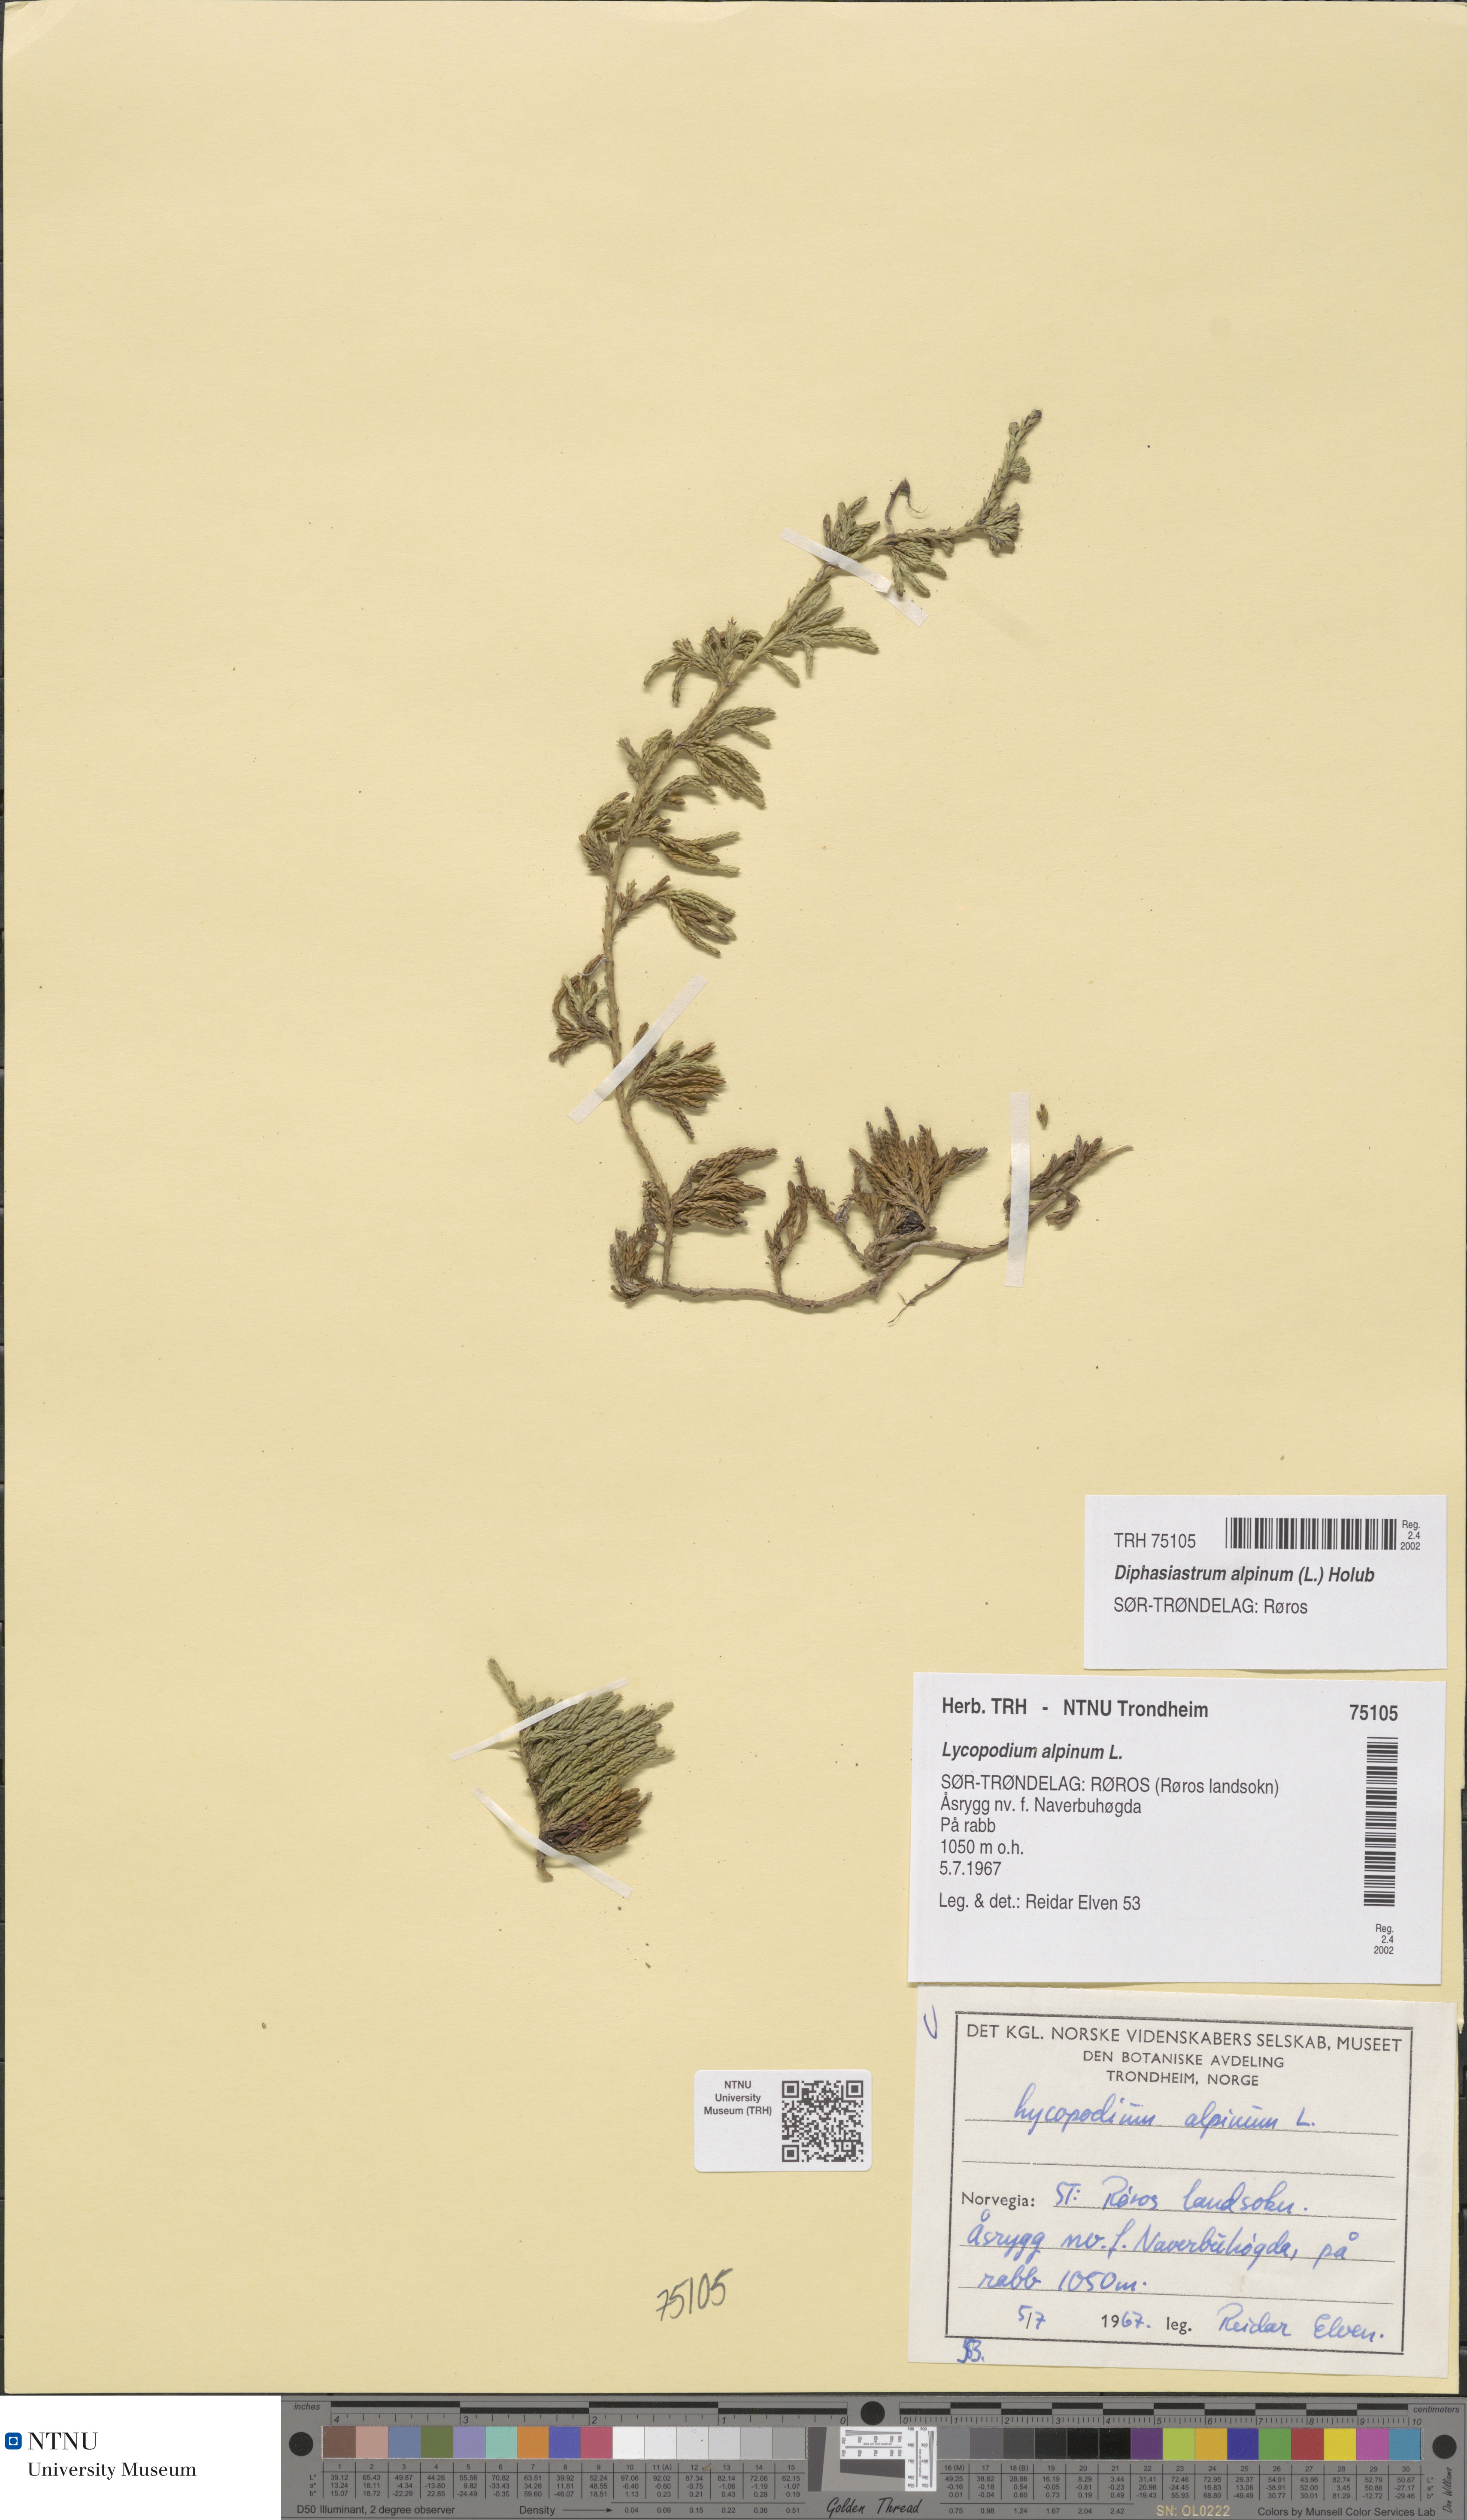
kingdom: Plantae
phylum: Tracheophyta
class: Lycopodiopsida
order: Lycopodiales
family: Lycopodiaceae
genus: Diphasiastrum
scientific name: Diphasiastrum alpinum
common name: Alpine clubmoss
